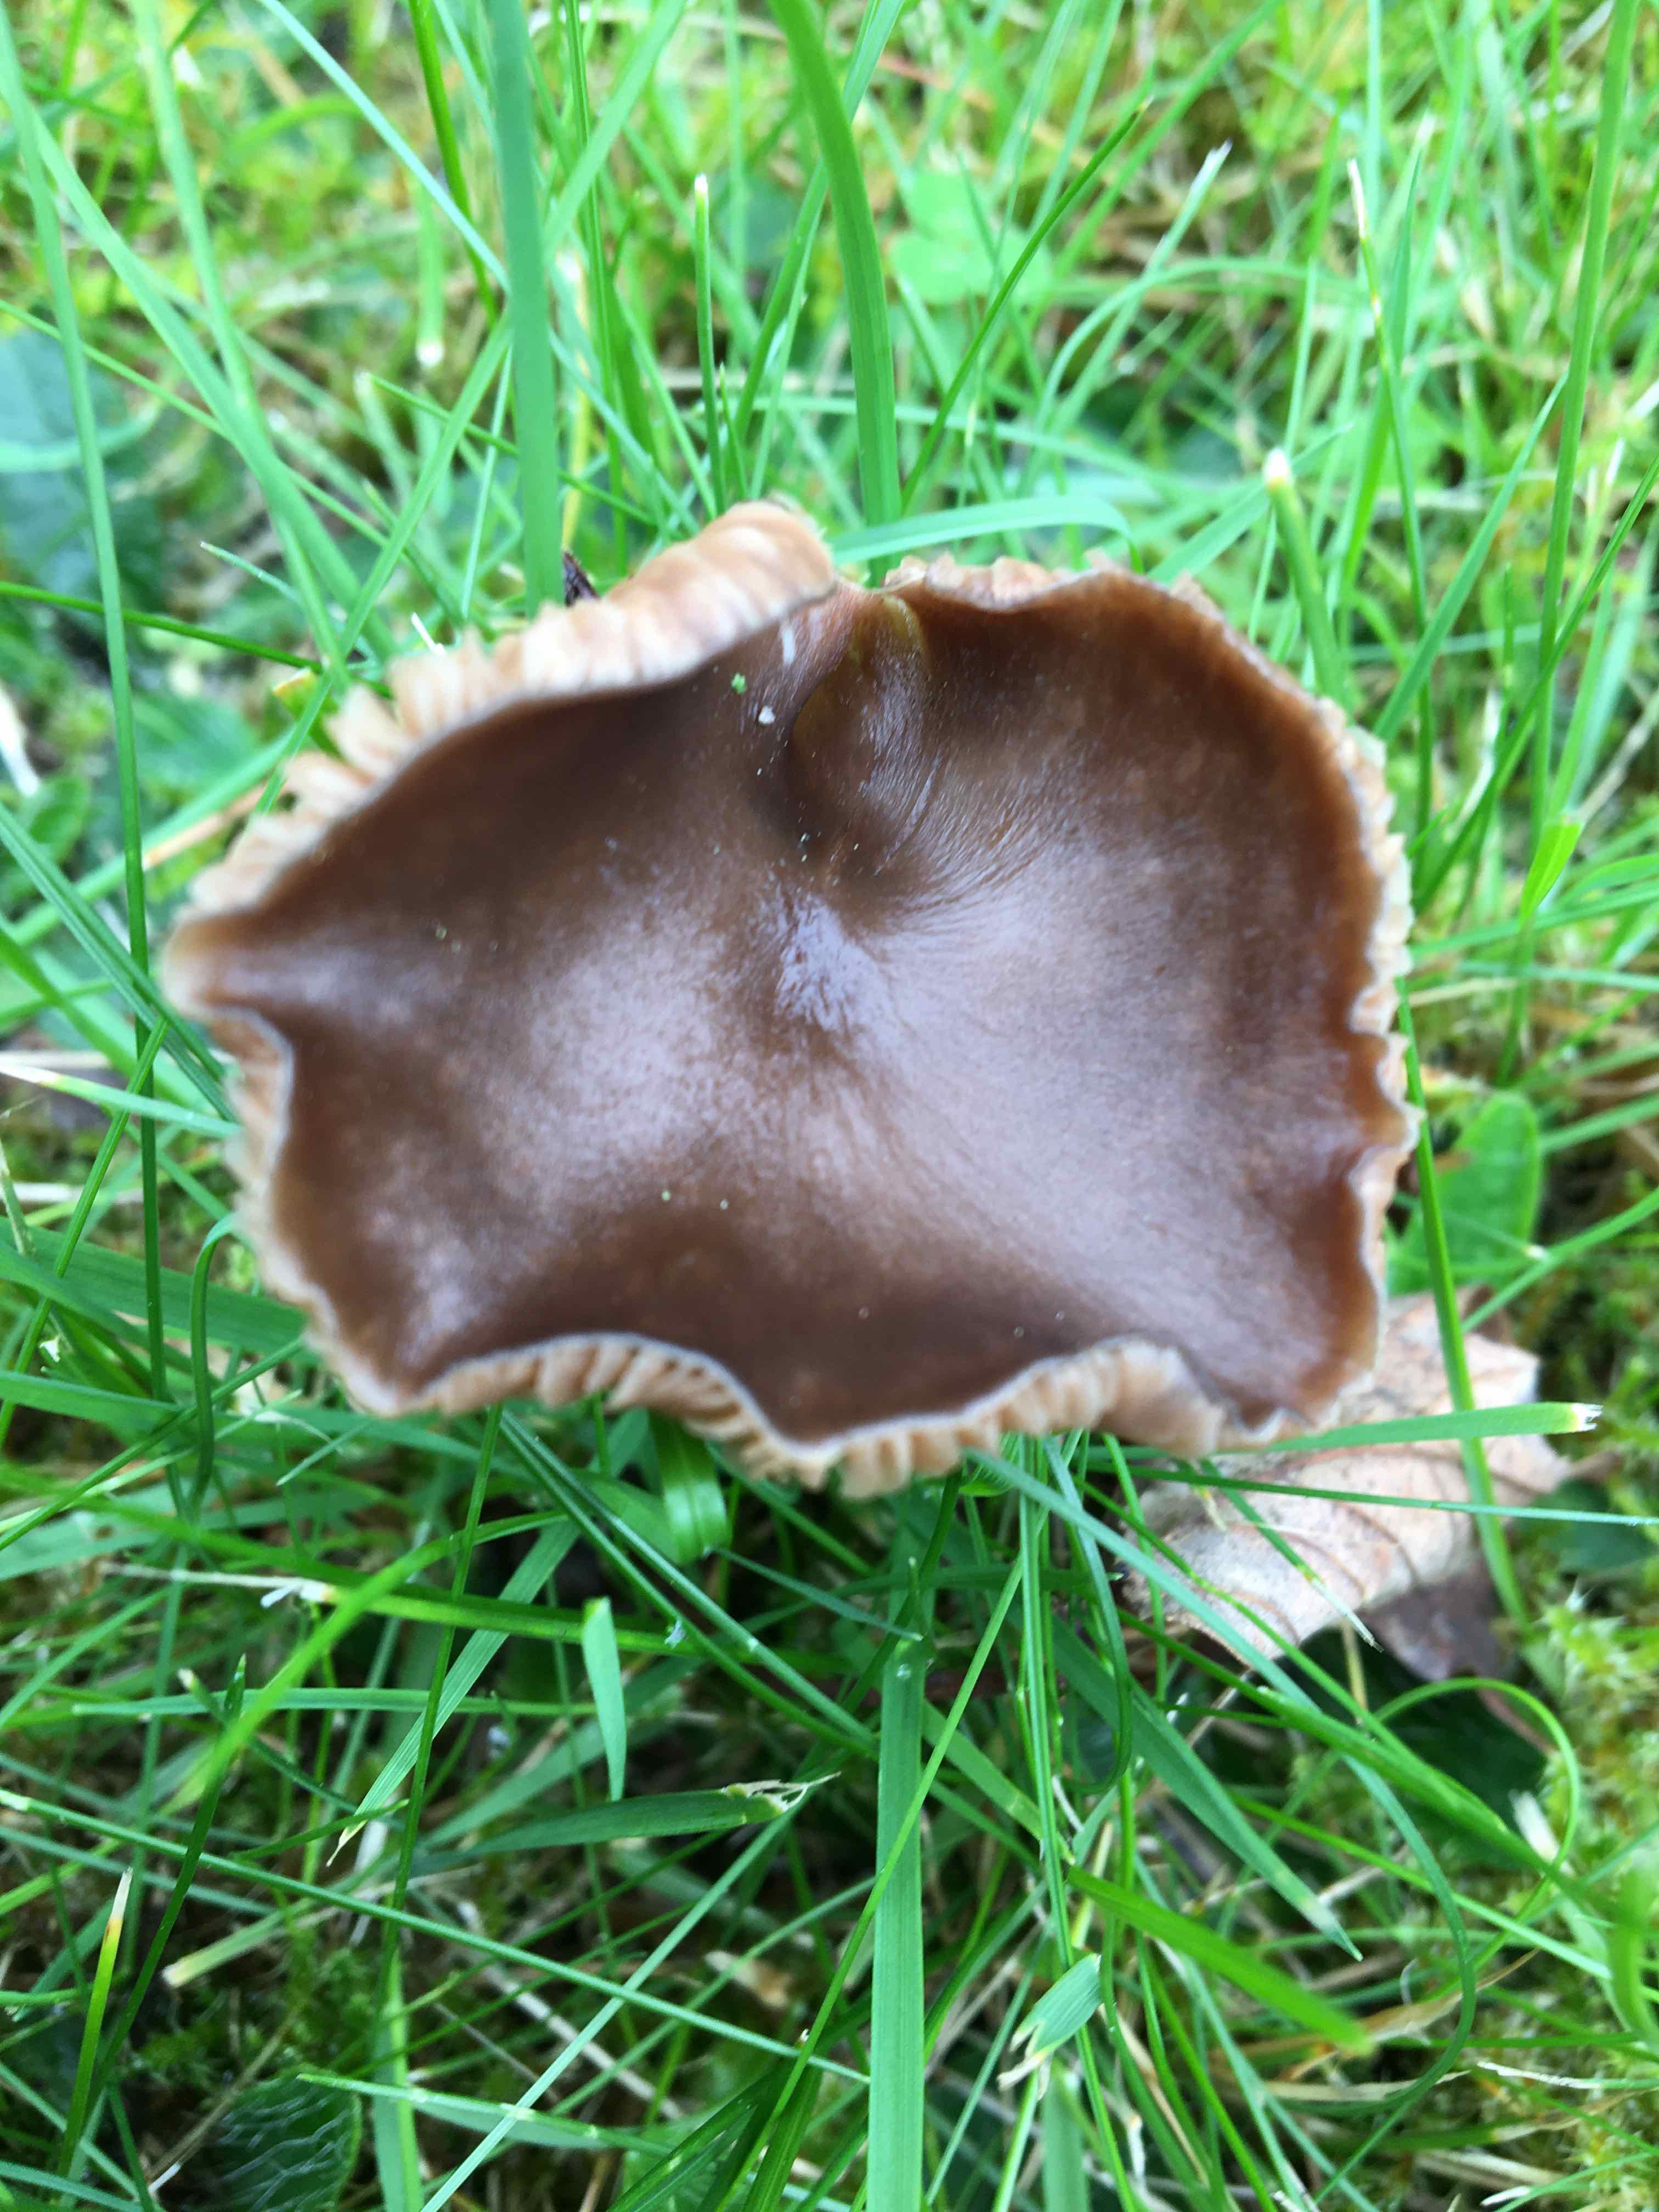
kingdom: Fungi
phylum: Basidiomycota
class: Agaricomycetes
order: Agaricales
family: Entolomataceae
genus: Entoloma
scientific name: Entoloma sericeum
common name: silkeglinsende rødblad
